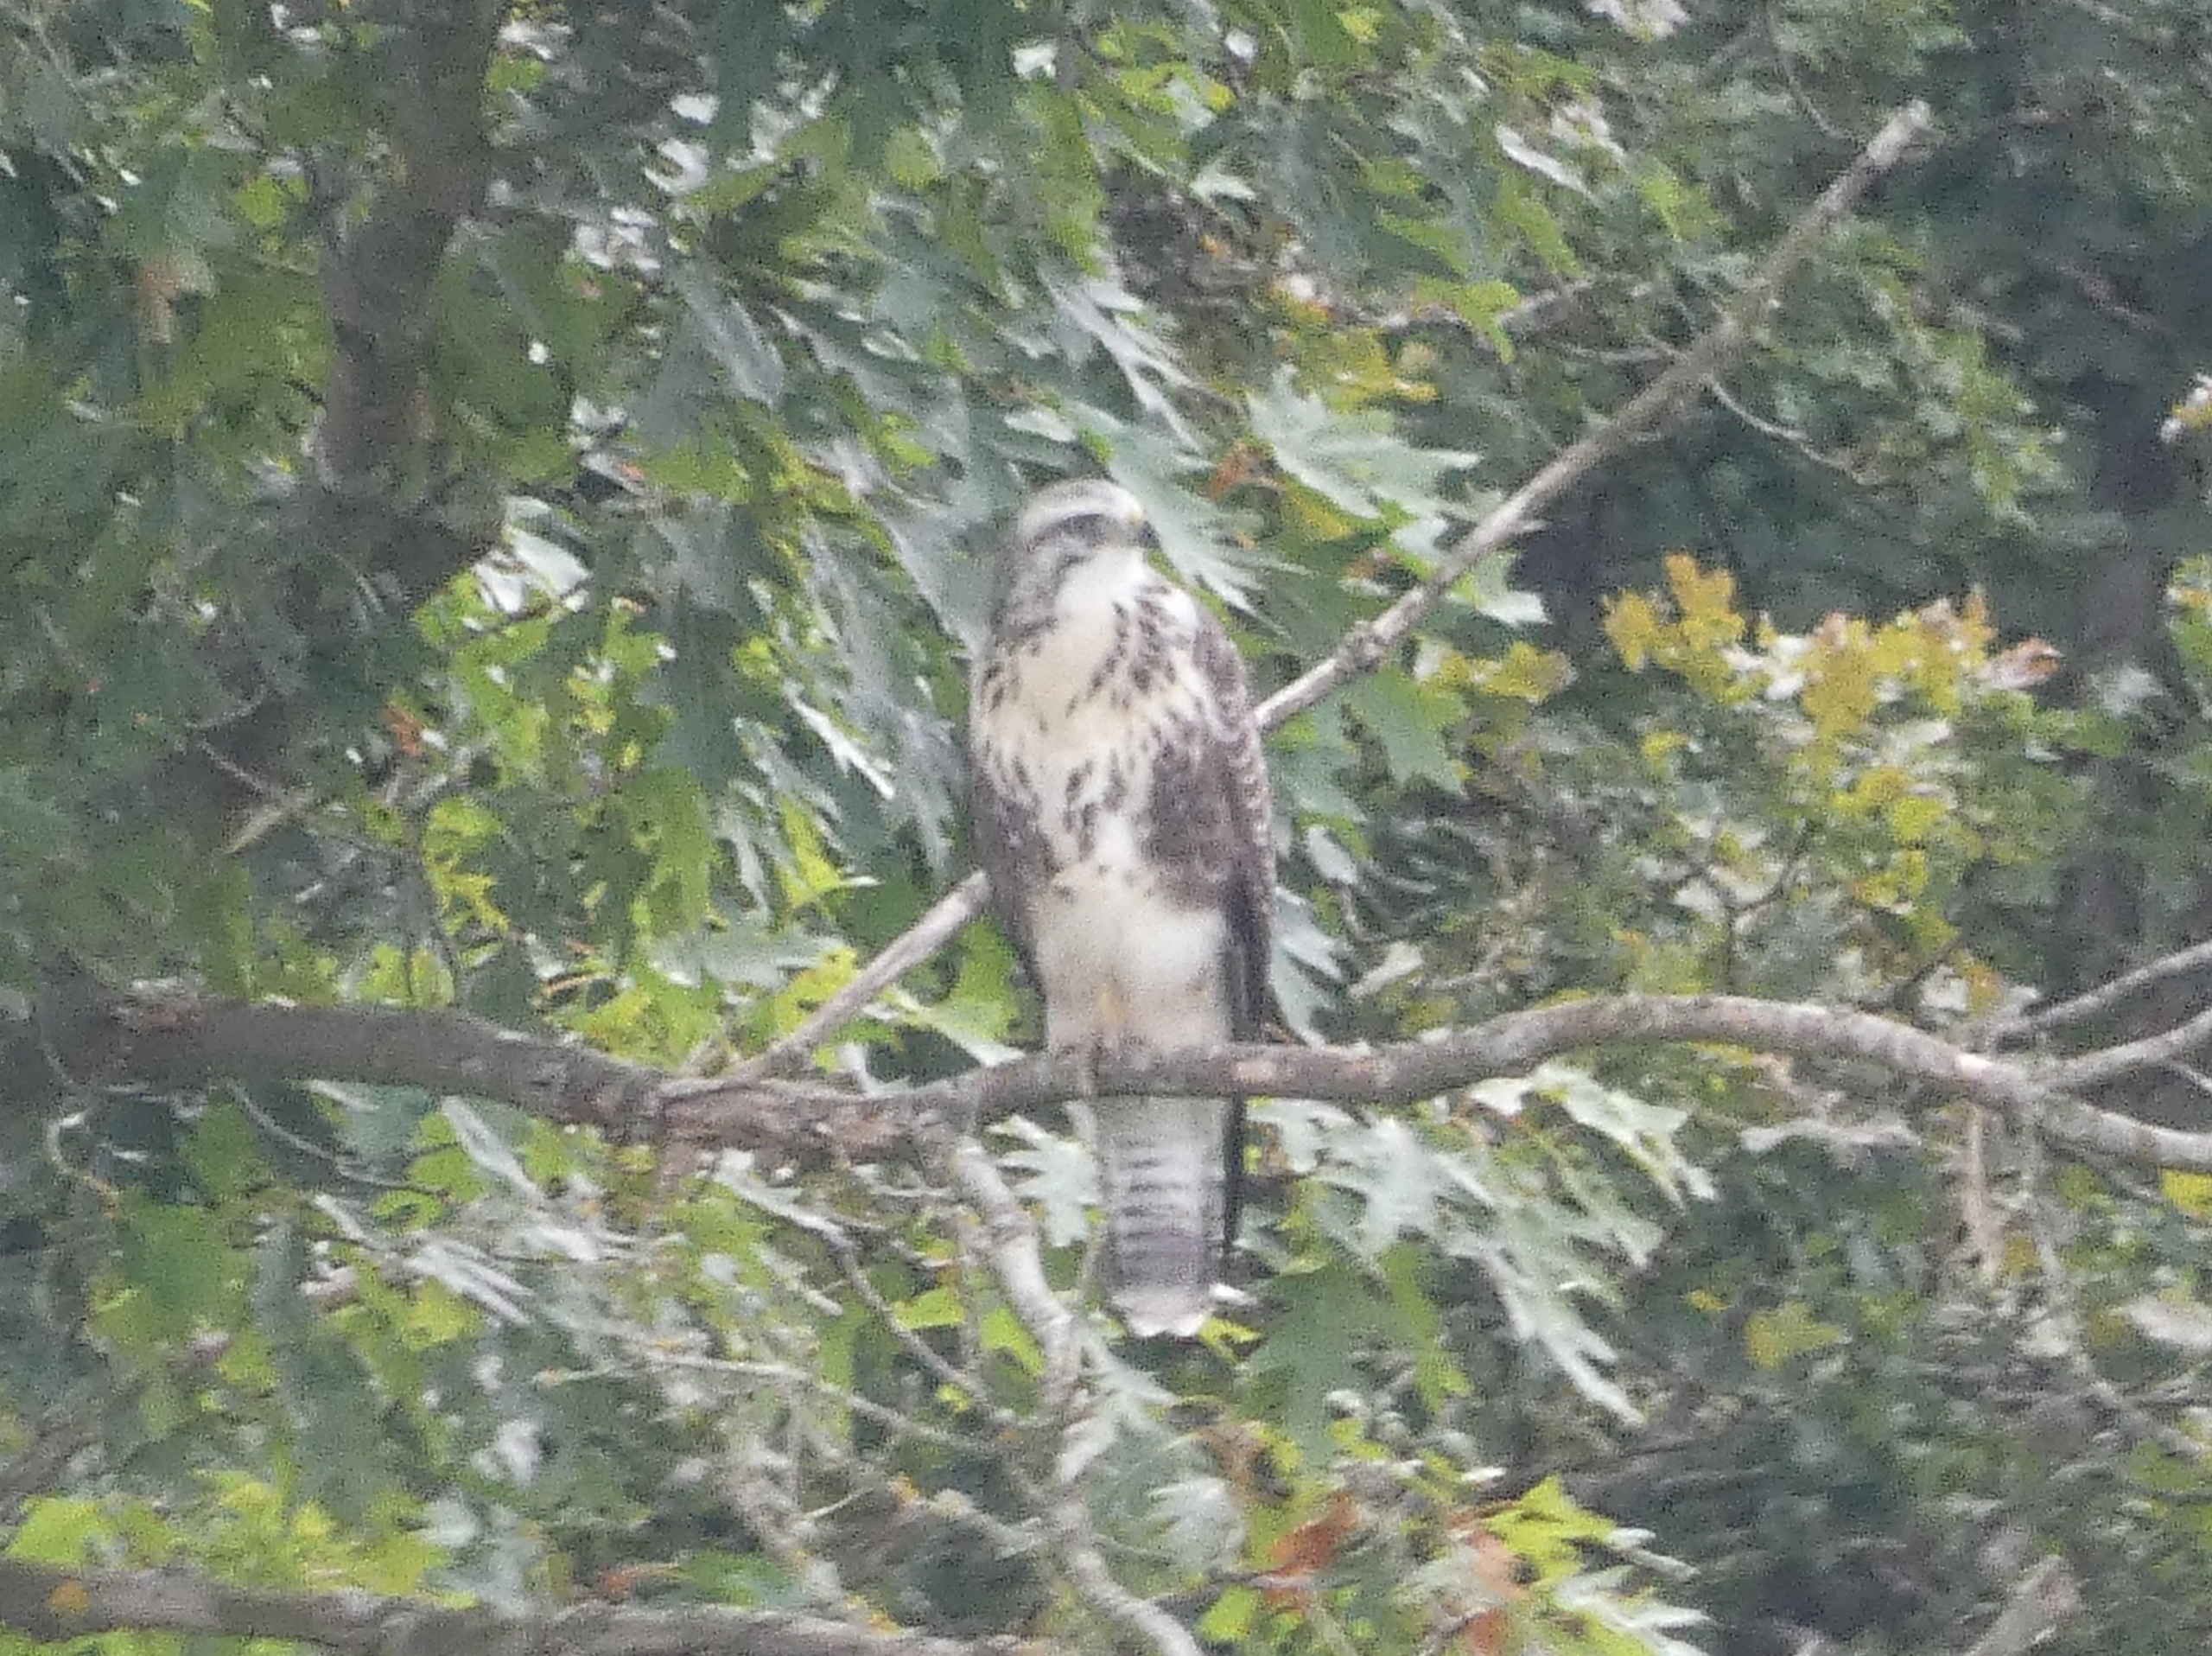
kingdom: Animalia
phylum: Chordata
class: Aves
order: Accipitriformes
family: Accipitridae
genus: Buteo
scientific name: Buteo buteo
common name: Musvåge
